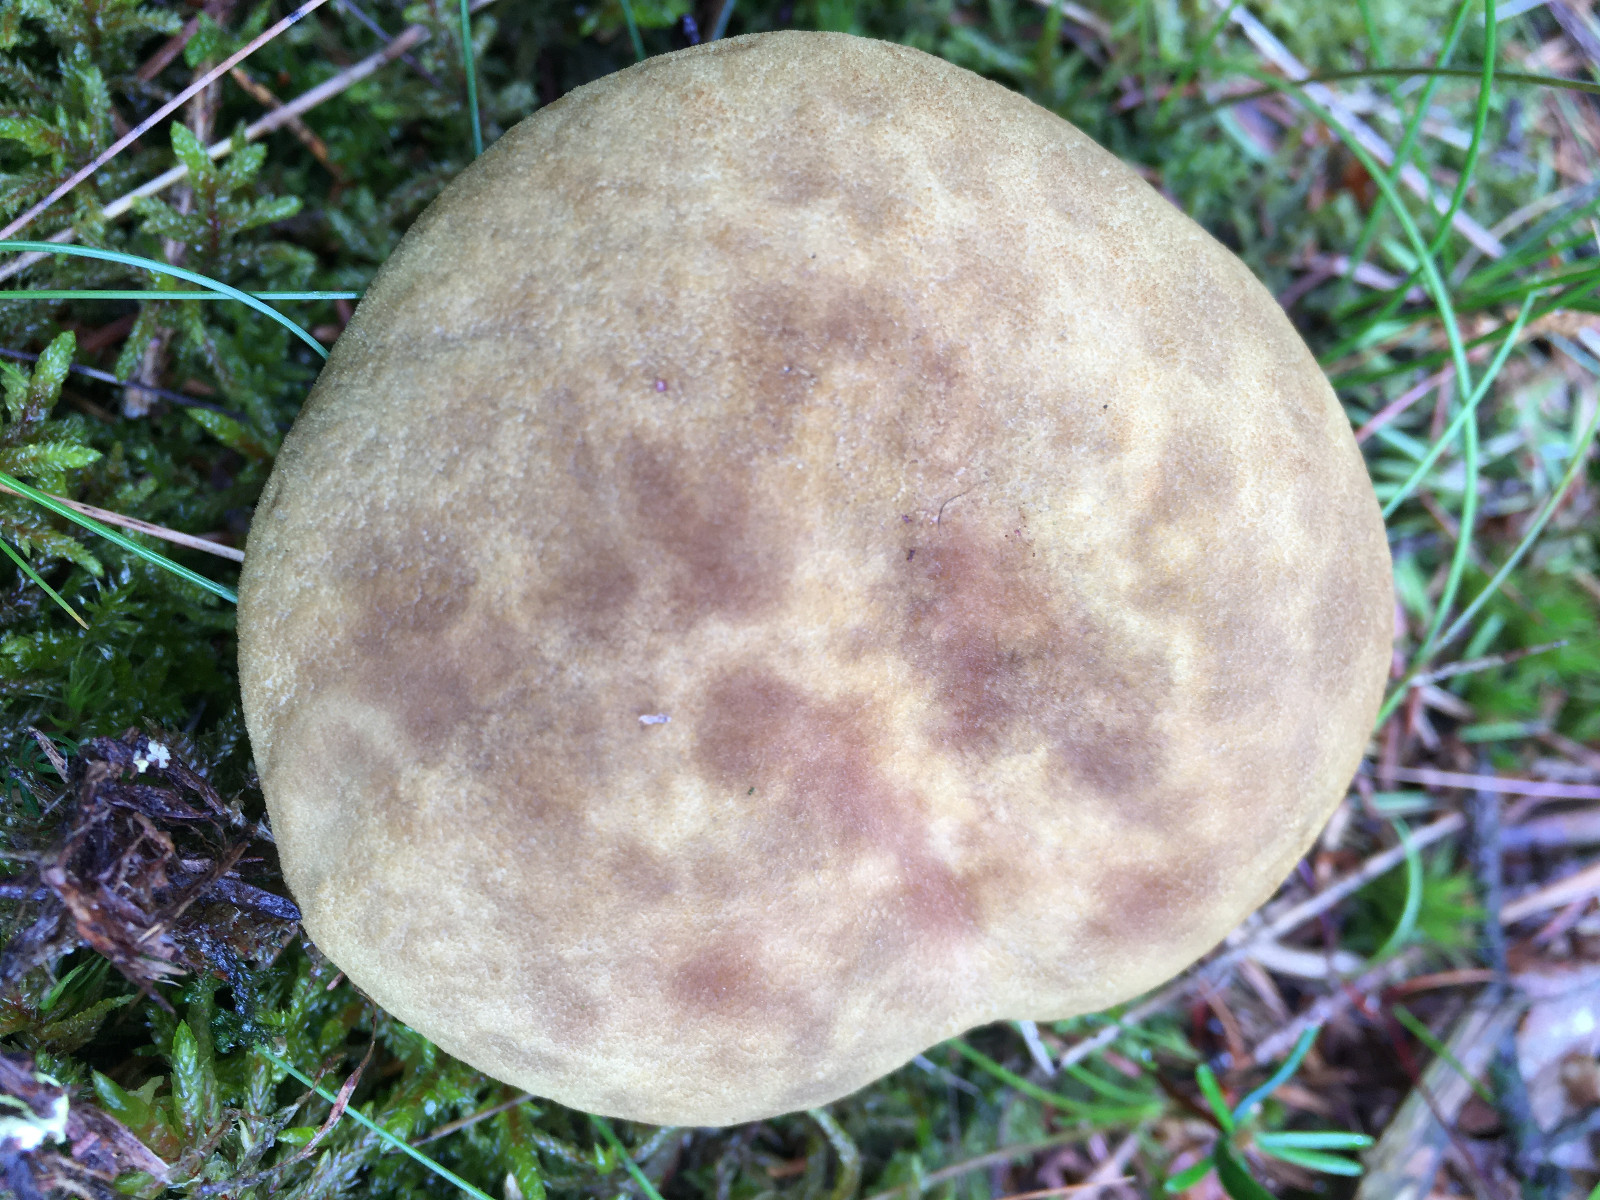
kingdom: Fungi
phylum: Basidiomycota
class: Agaricomycetes
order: Boletales
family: Boletaceae
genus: Xerocomus
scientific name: Xerocomus ferrugineus
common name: vaskeskinds-rørhat
